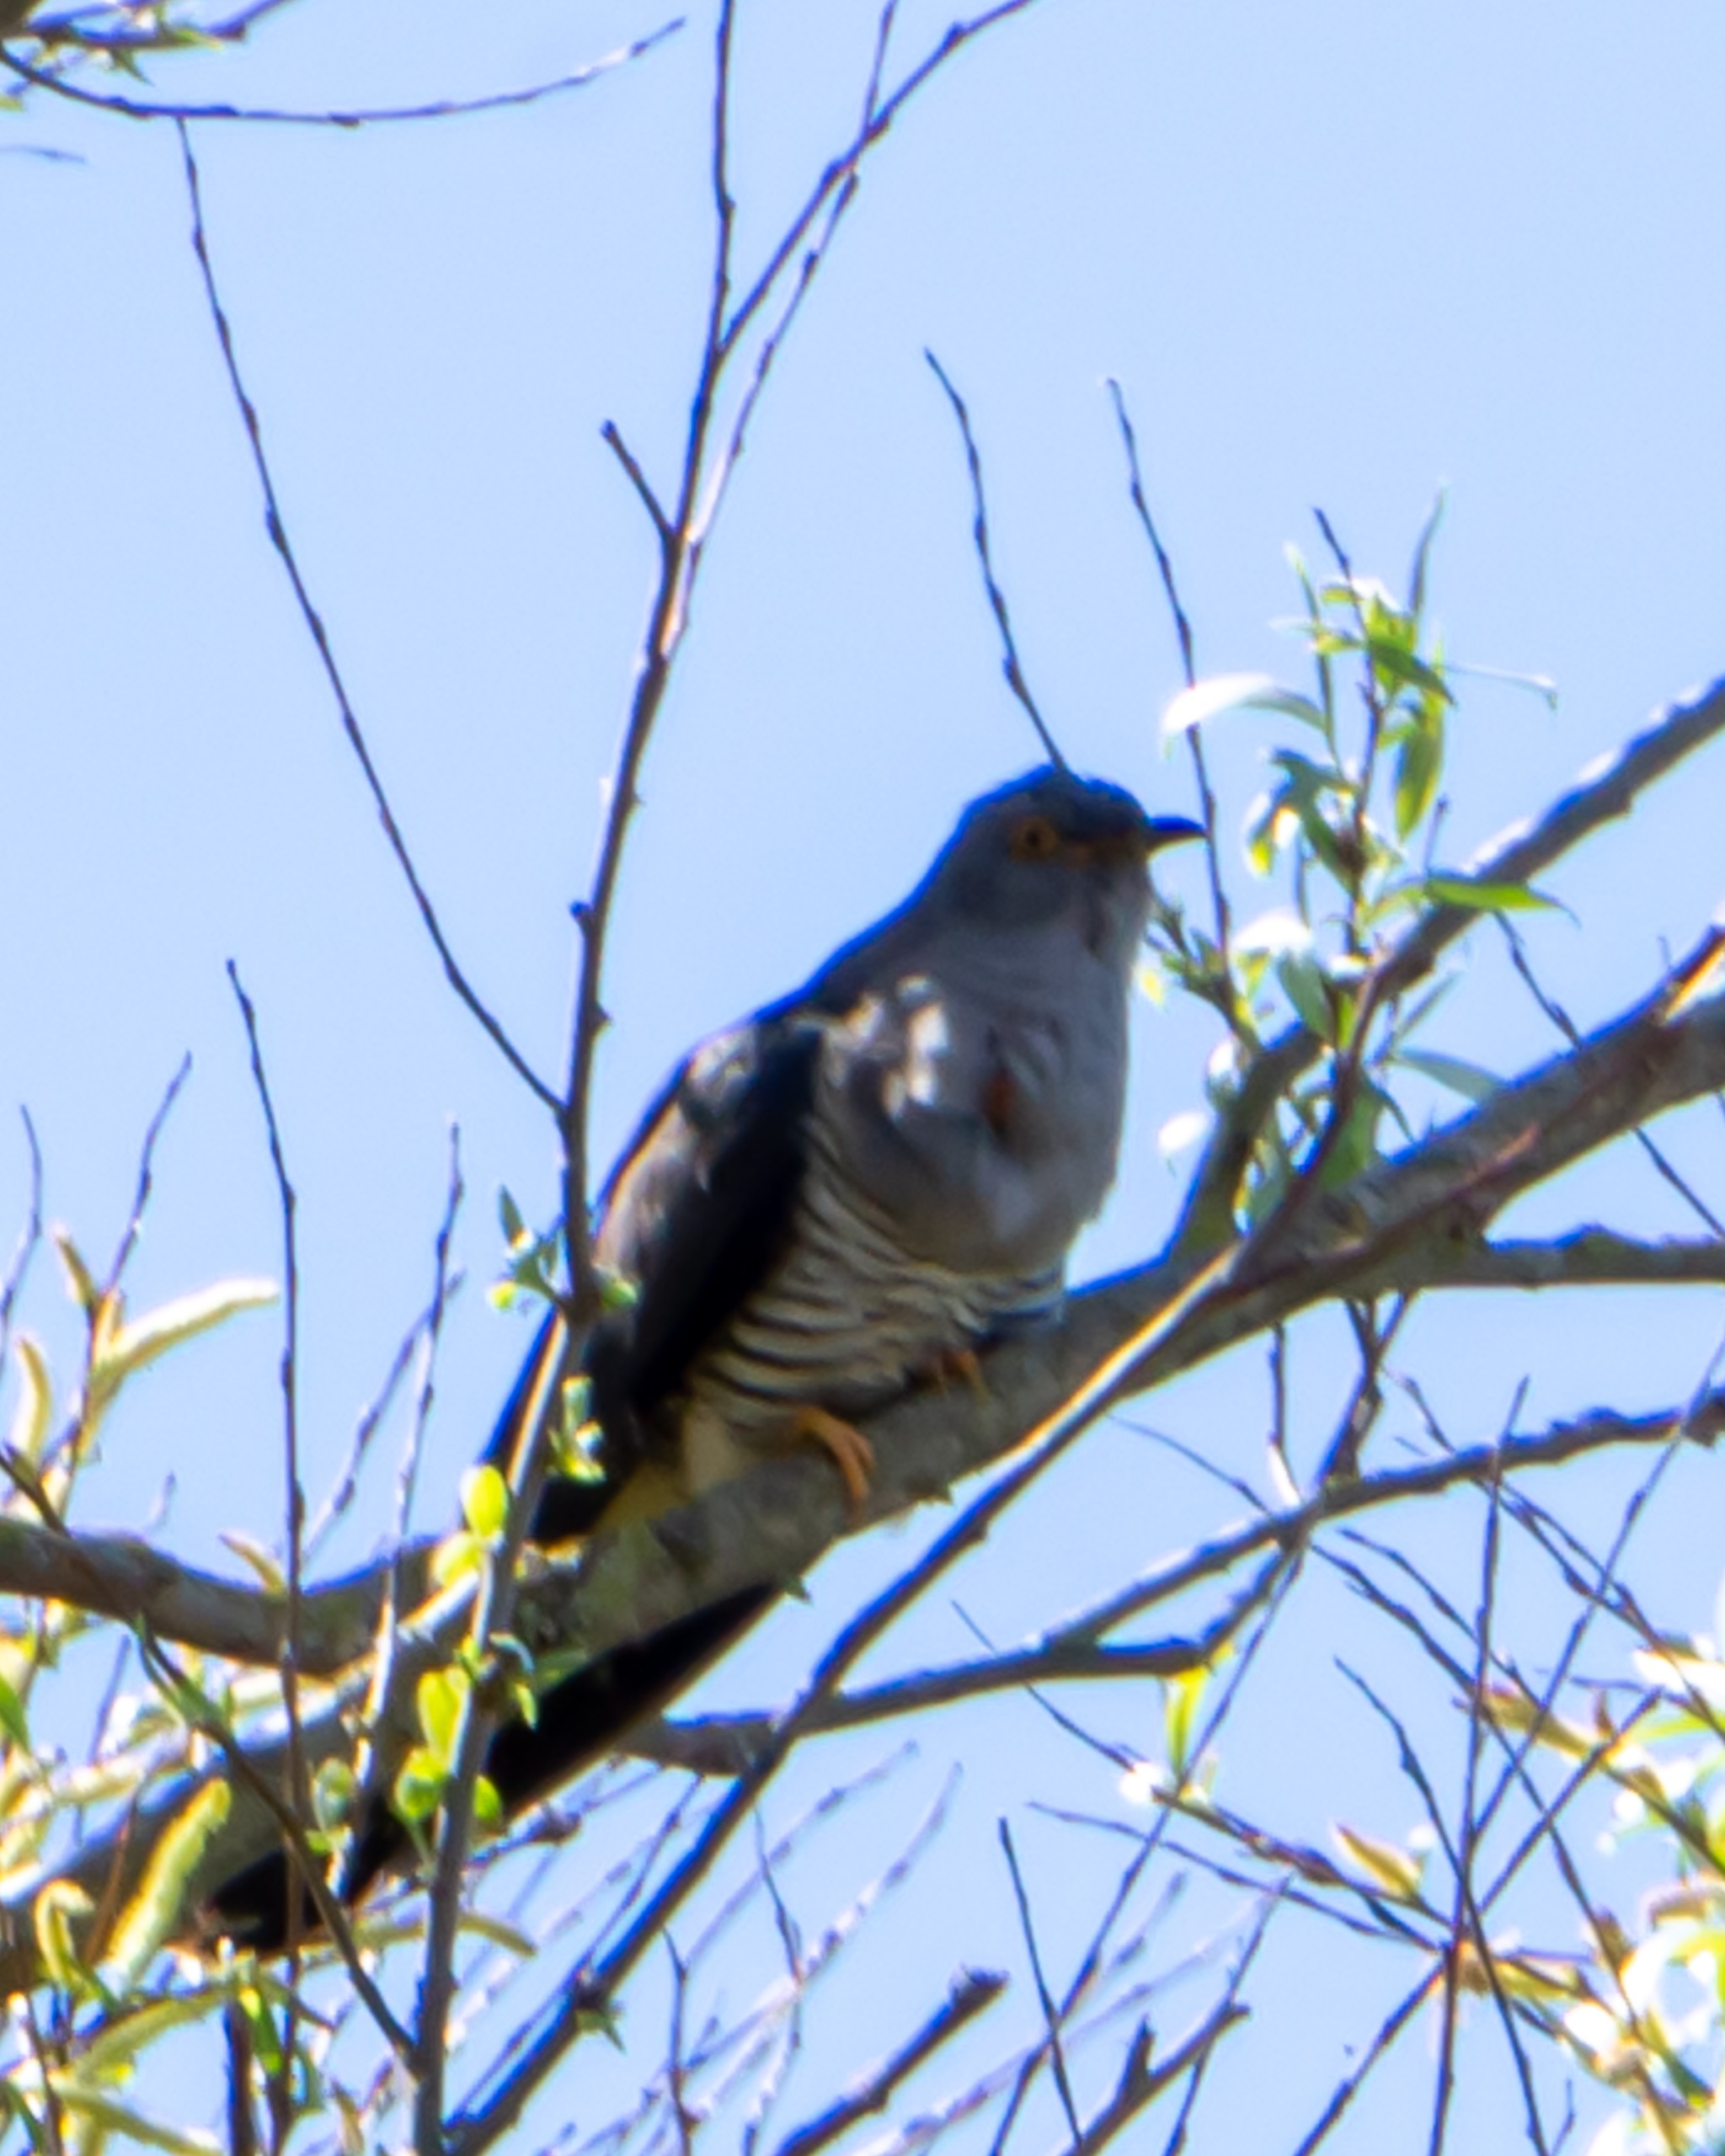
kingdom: Animalia
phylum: Chordata
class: Aves
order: Cuculiformes
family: Cuculidae
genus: Cuculus
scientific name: Cuculus canorus
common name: Gøg
